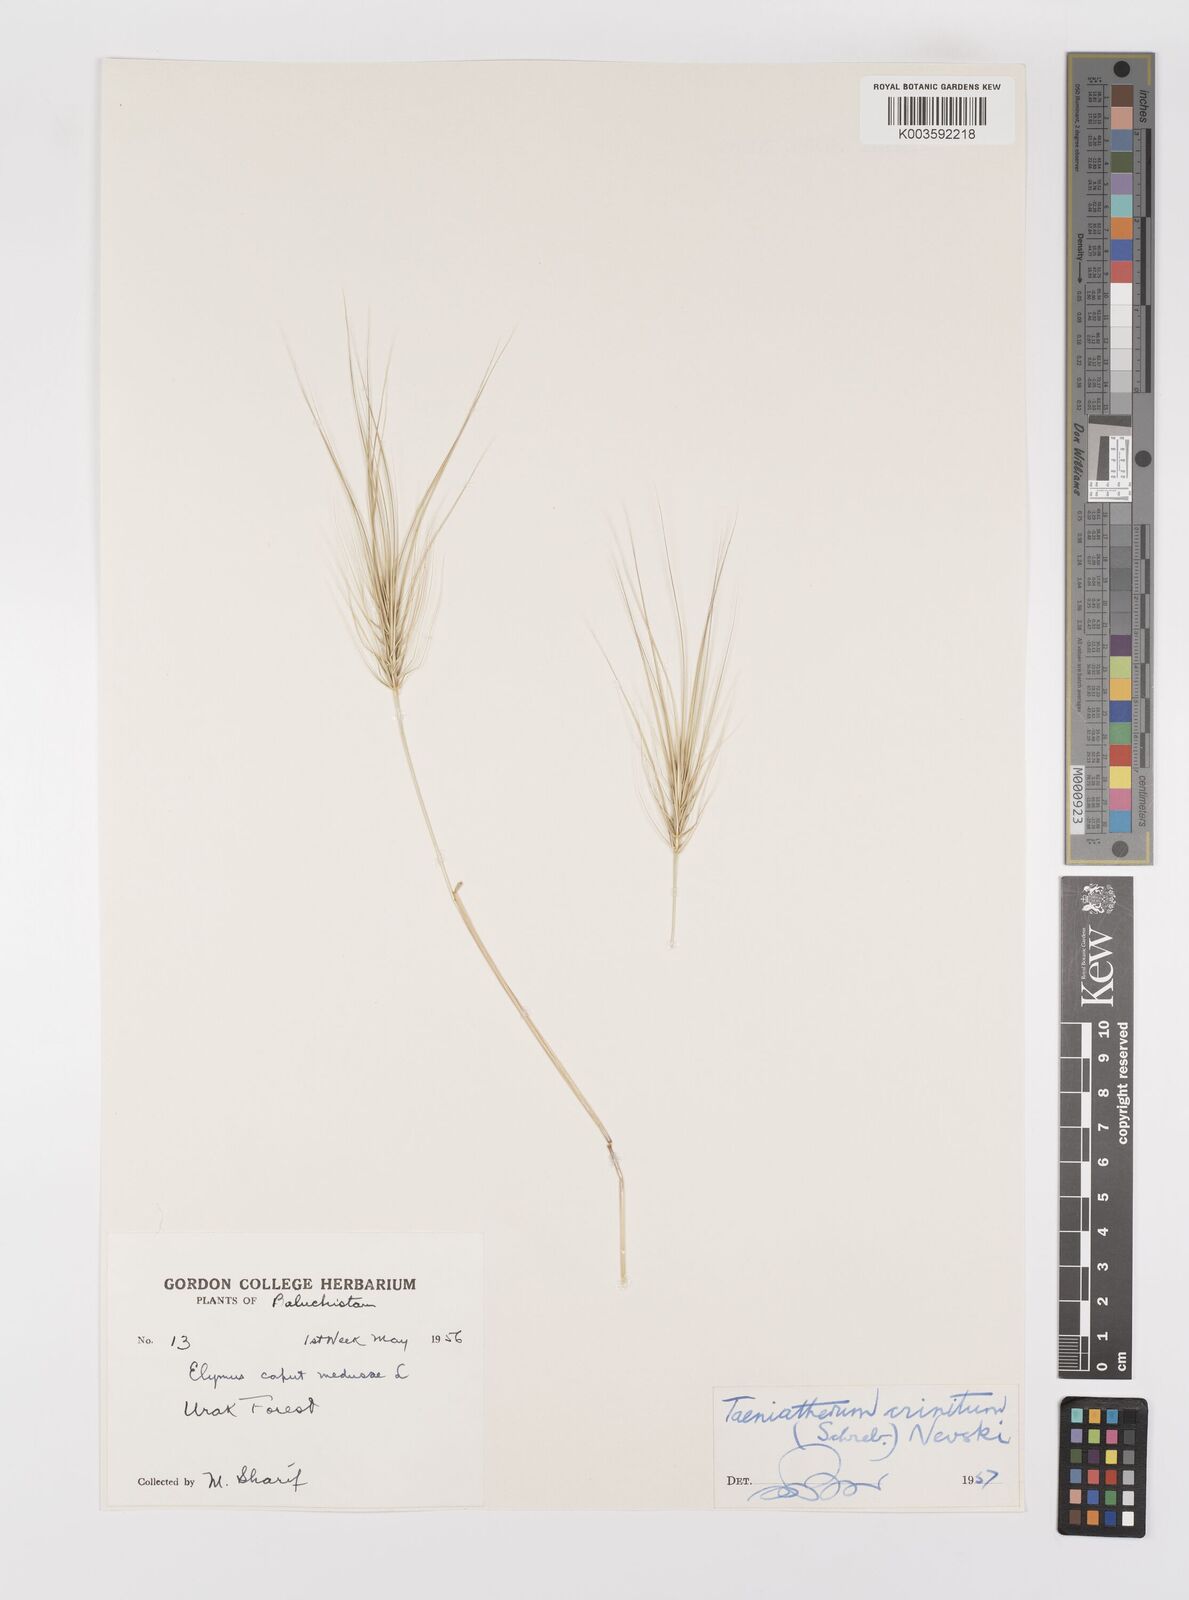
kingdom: Plantae
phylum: Tracheophyta
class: Liliopsida
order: Poales
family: Poaceae
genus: Taeniatherum
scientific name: Taeniatherum caput-medusae
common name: Medusahead
